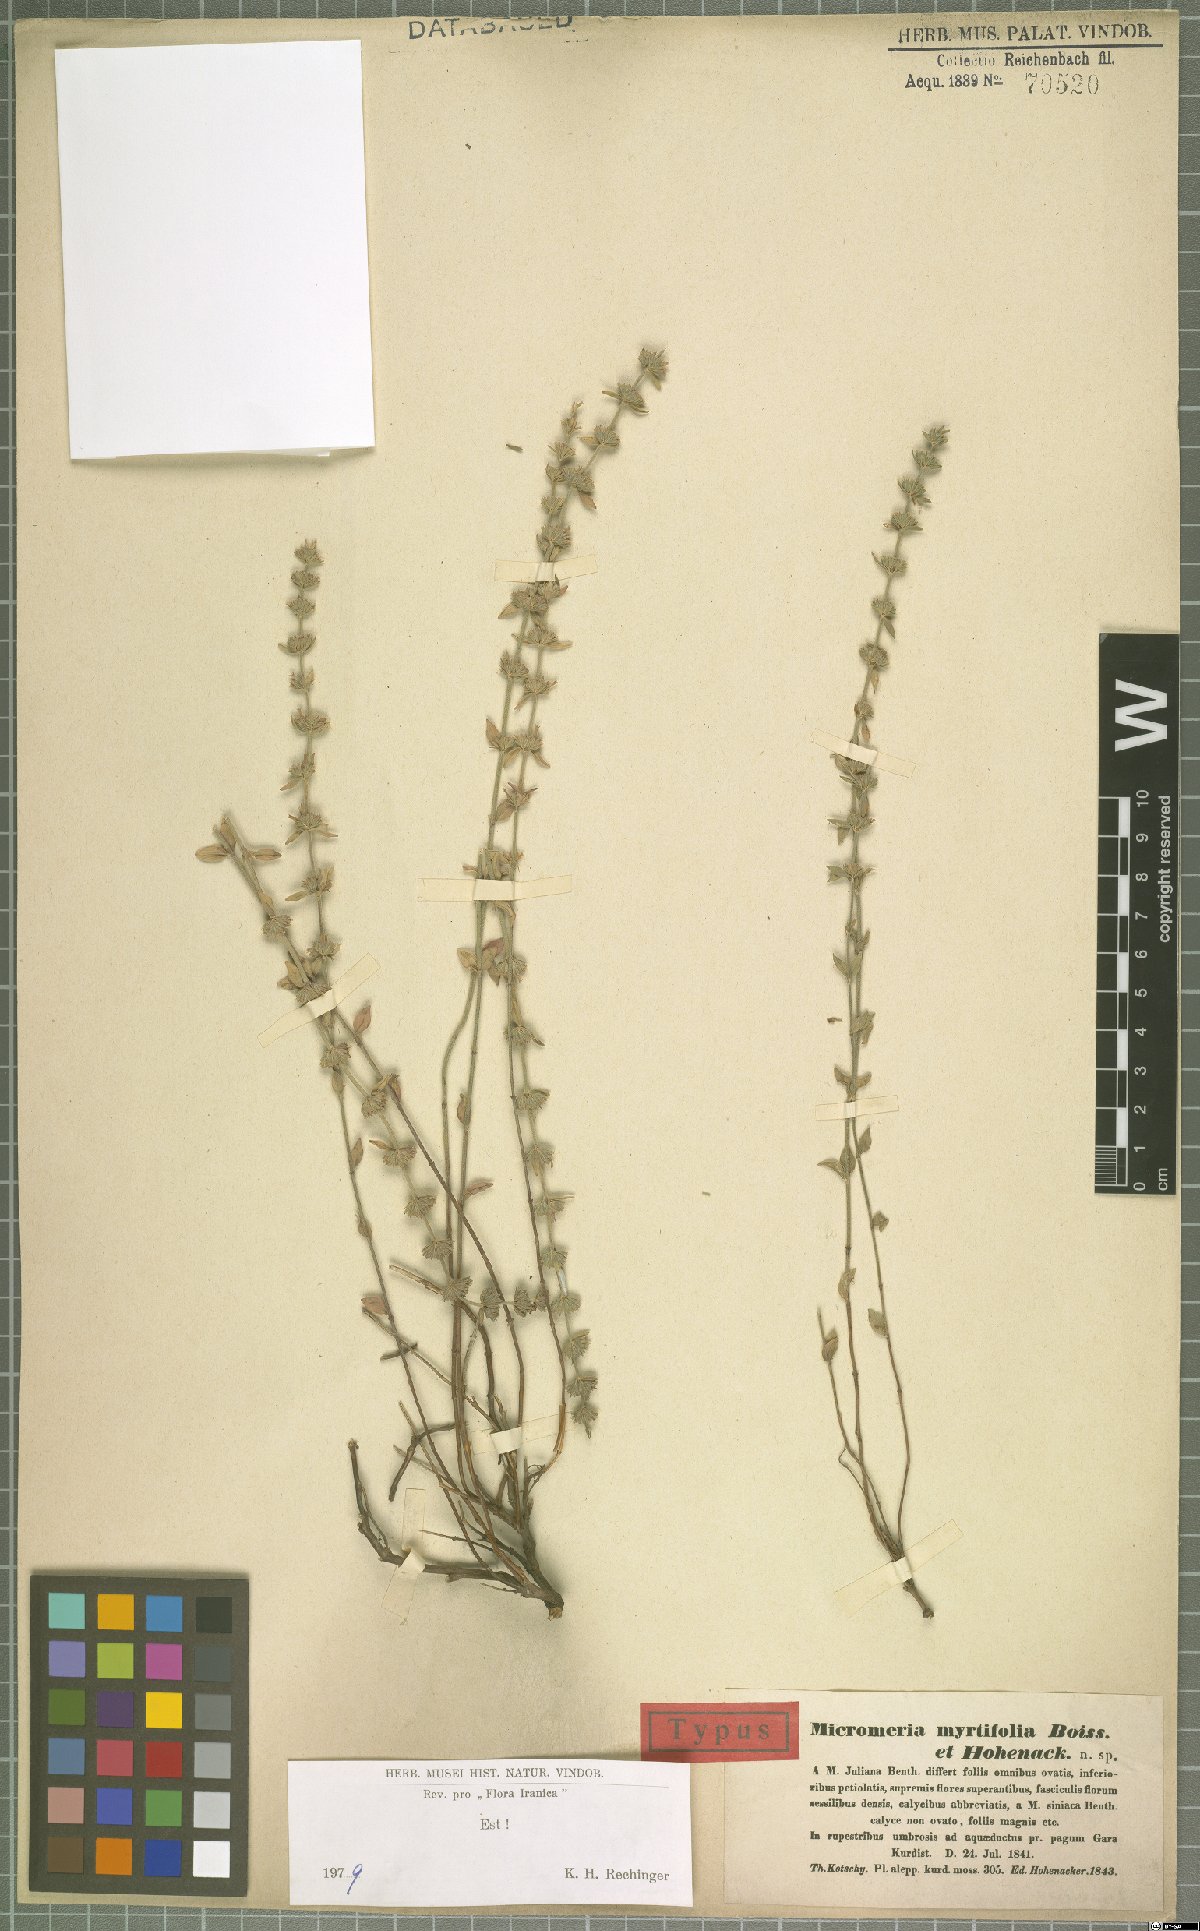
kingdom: Plantae
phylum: Tracheophyta
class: Magnoliopsida
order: Lamiales
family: Lamiaceae
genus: Micromeria
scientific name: Micromeria myrtifolia
